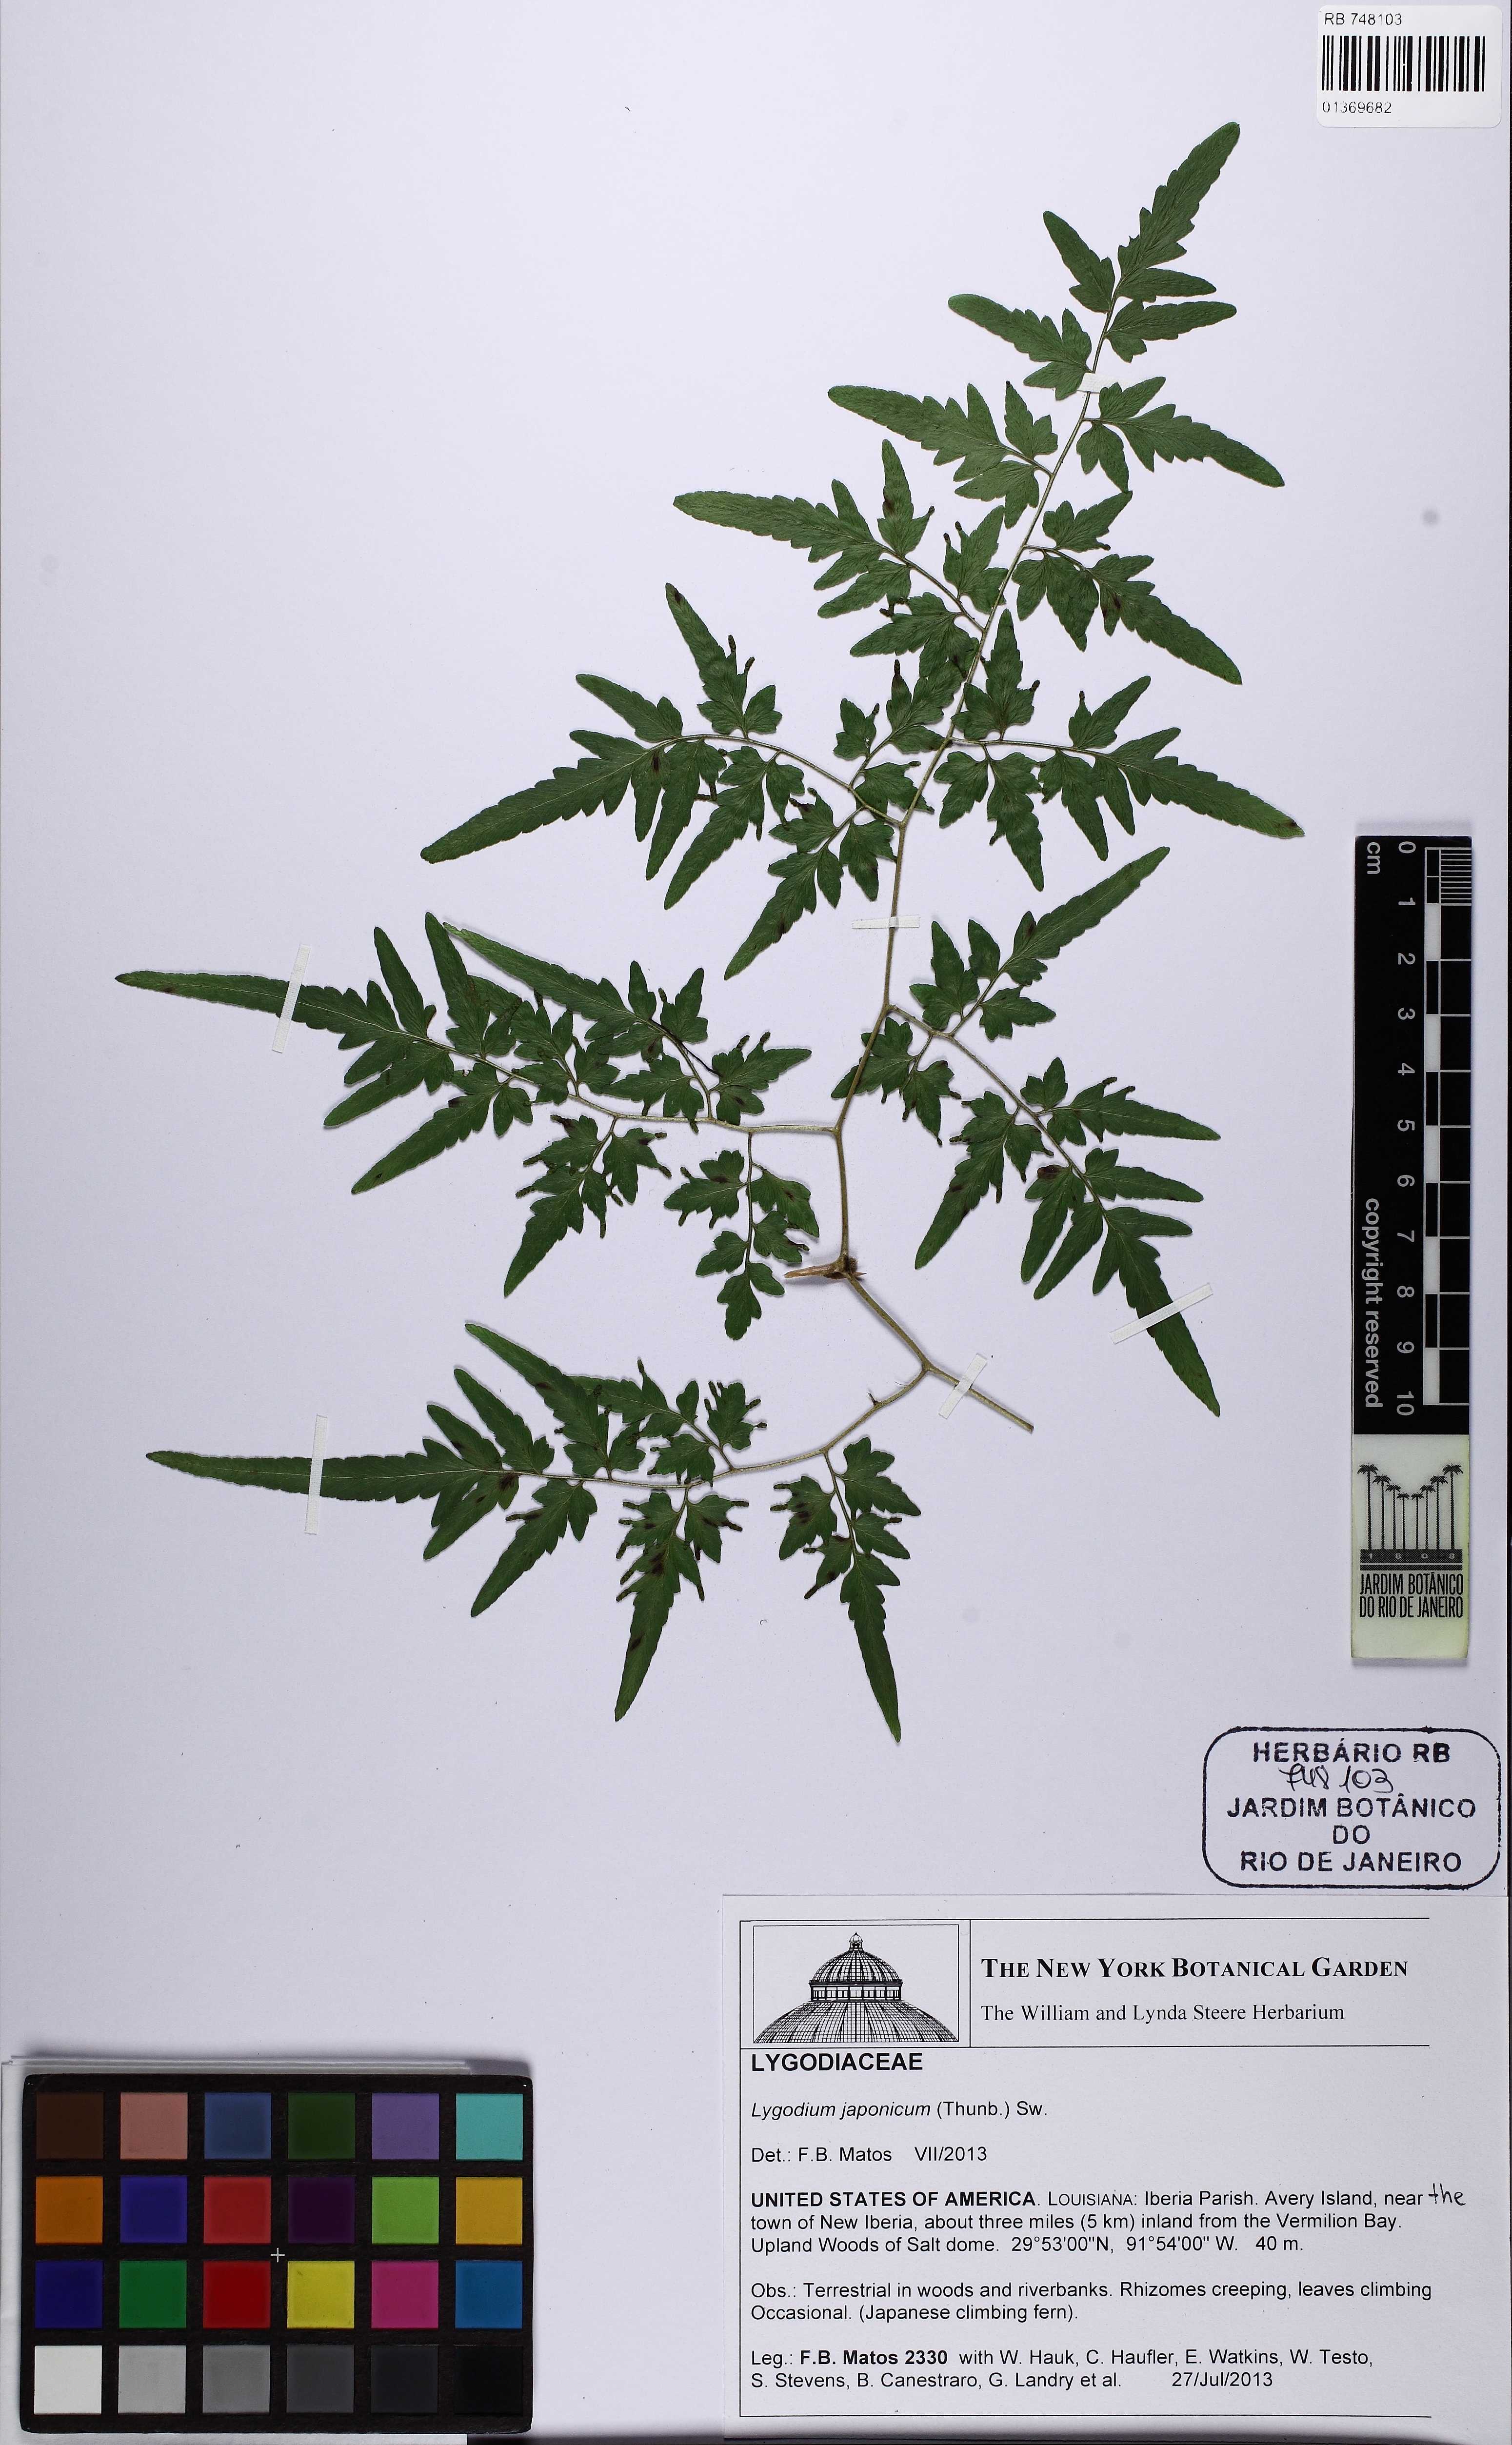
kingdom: Plantae
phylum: Tracheophyta
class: Polypodiopsida
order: Schizaeales
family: Lygodiaceae
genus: Lygodium
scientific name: Lygodium japonicum
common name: Japanese climbing fern
